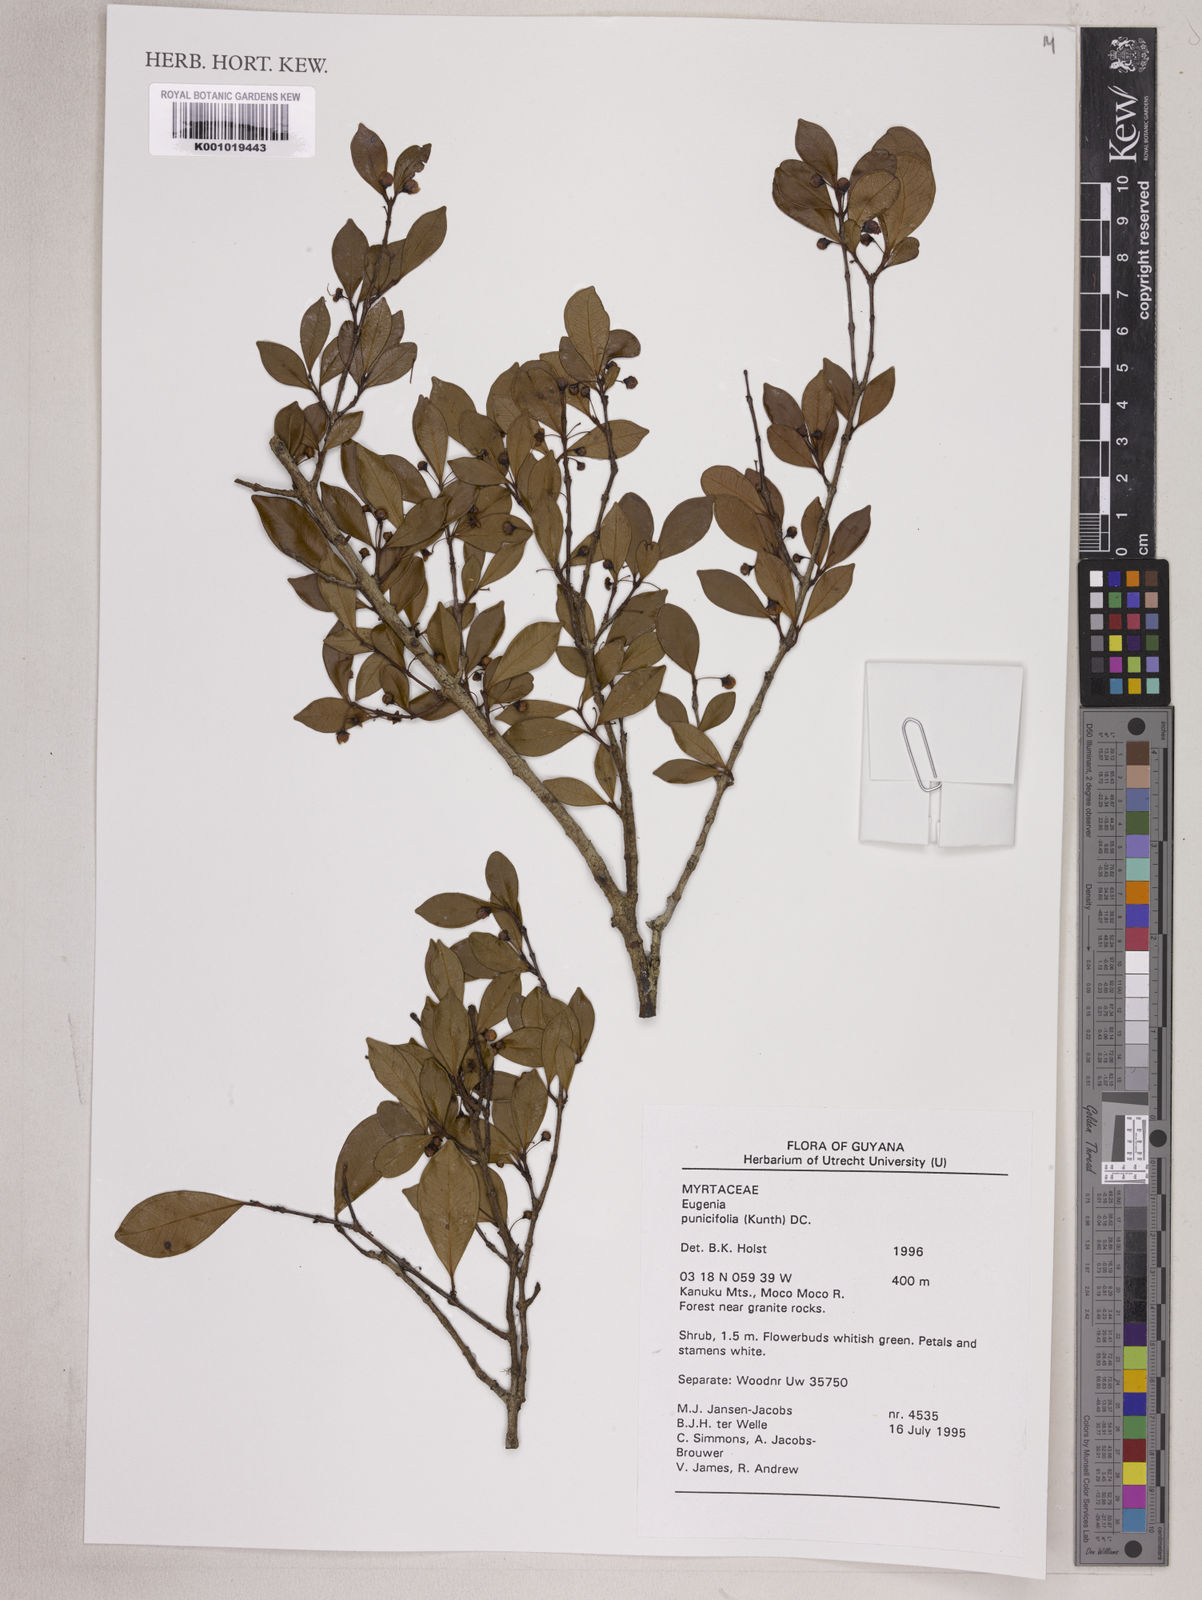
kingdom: Plantae
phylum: Tracheophyta
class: Magnoliopsida
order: Myrtales
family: Myrtaceae
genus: Eugenia
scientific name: Eugenia punicifolia
